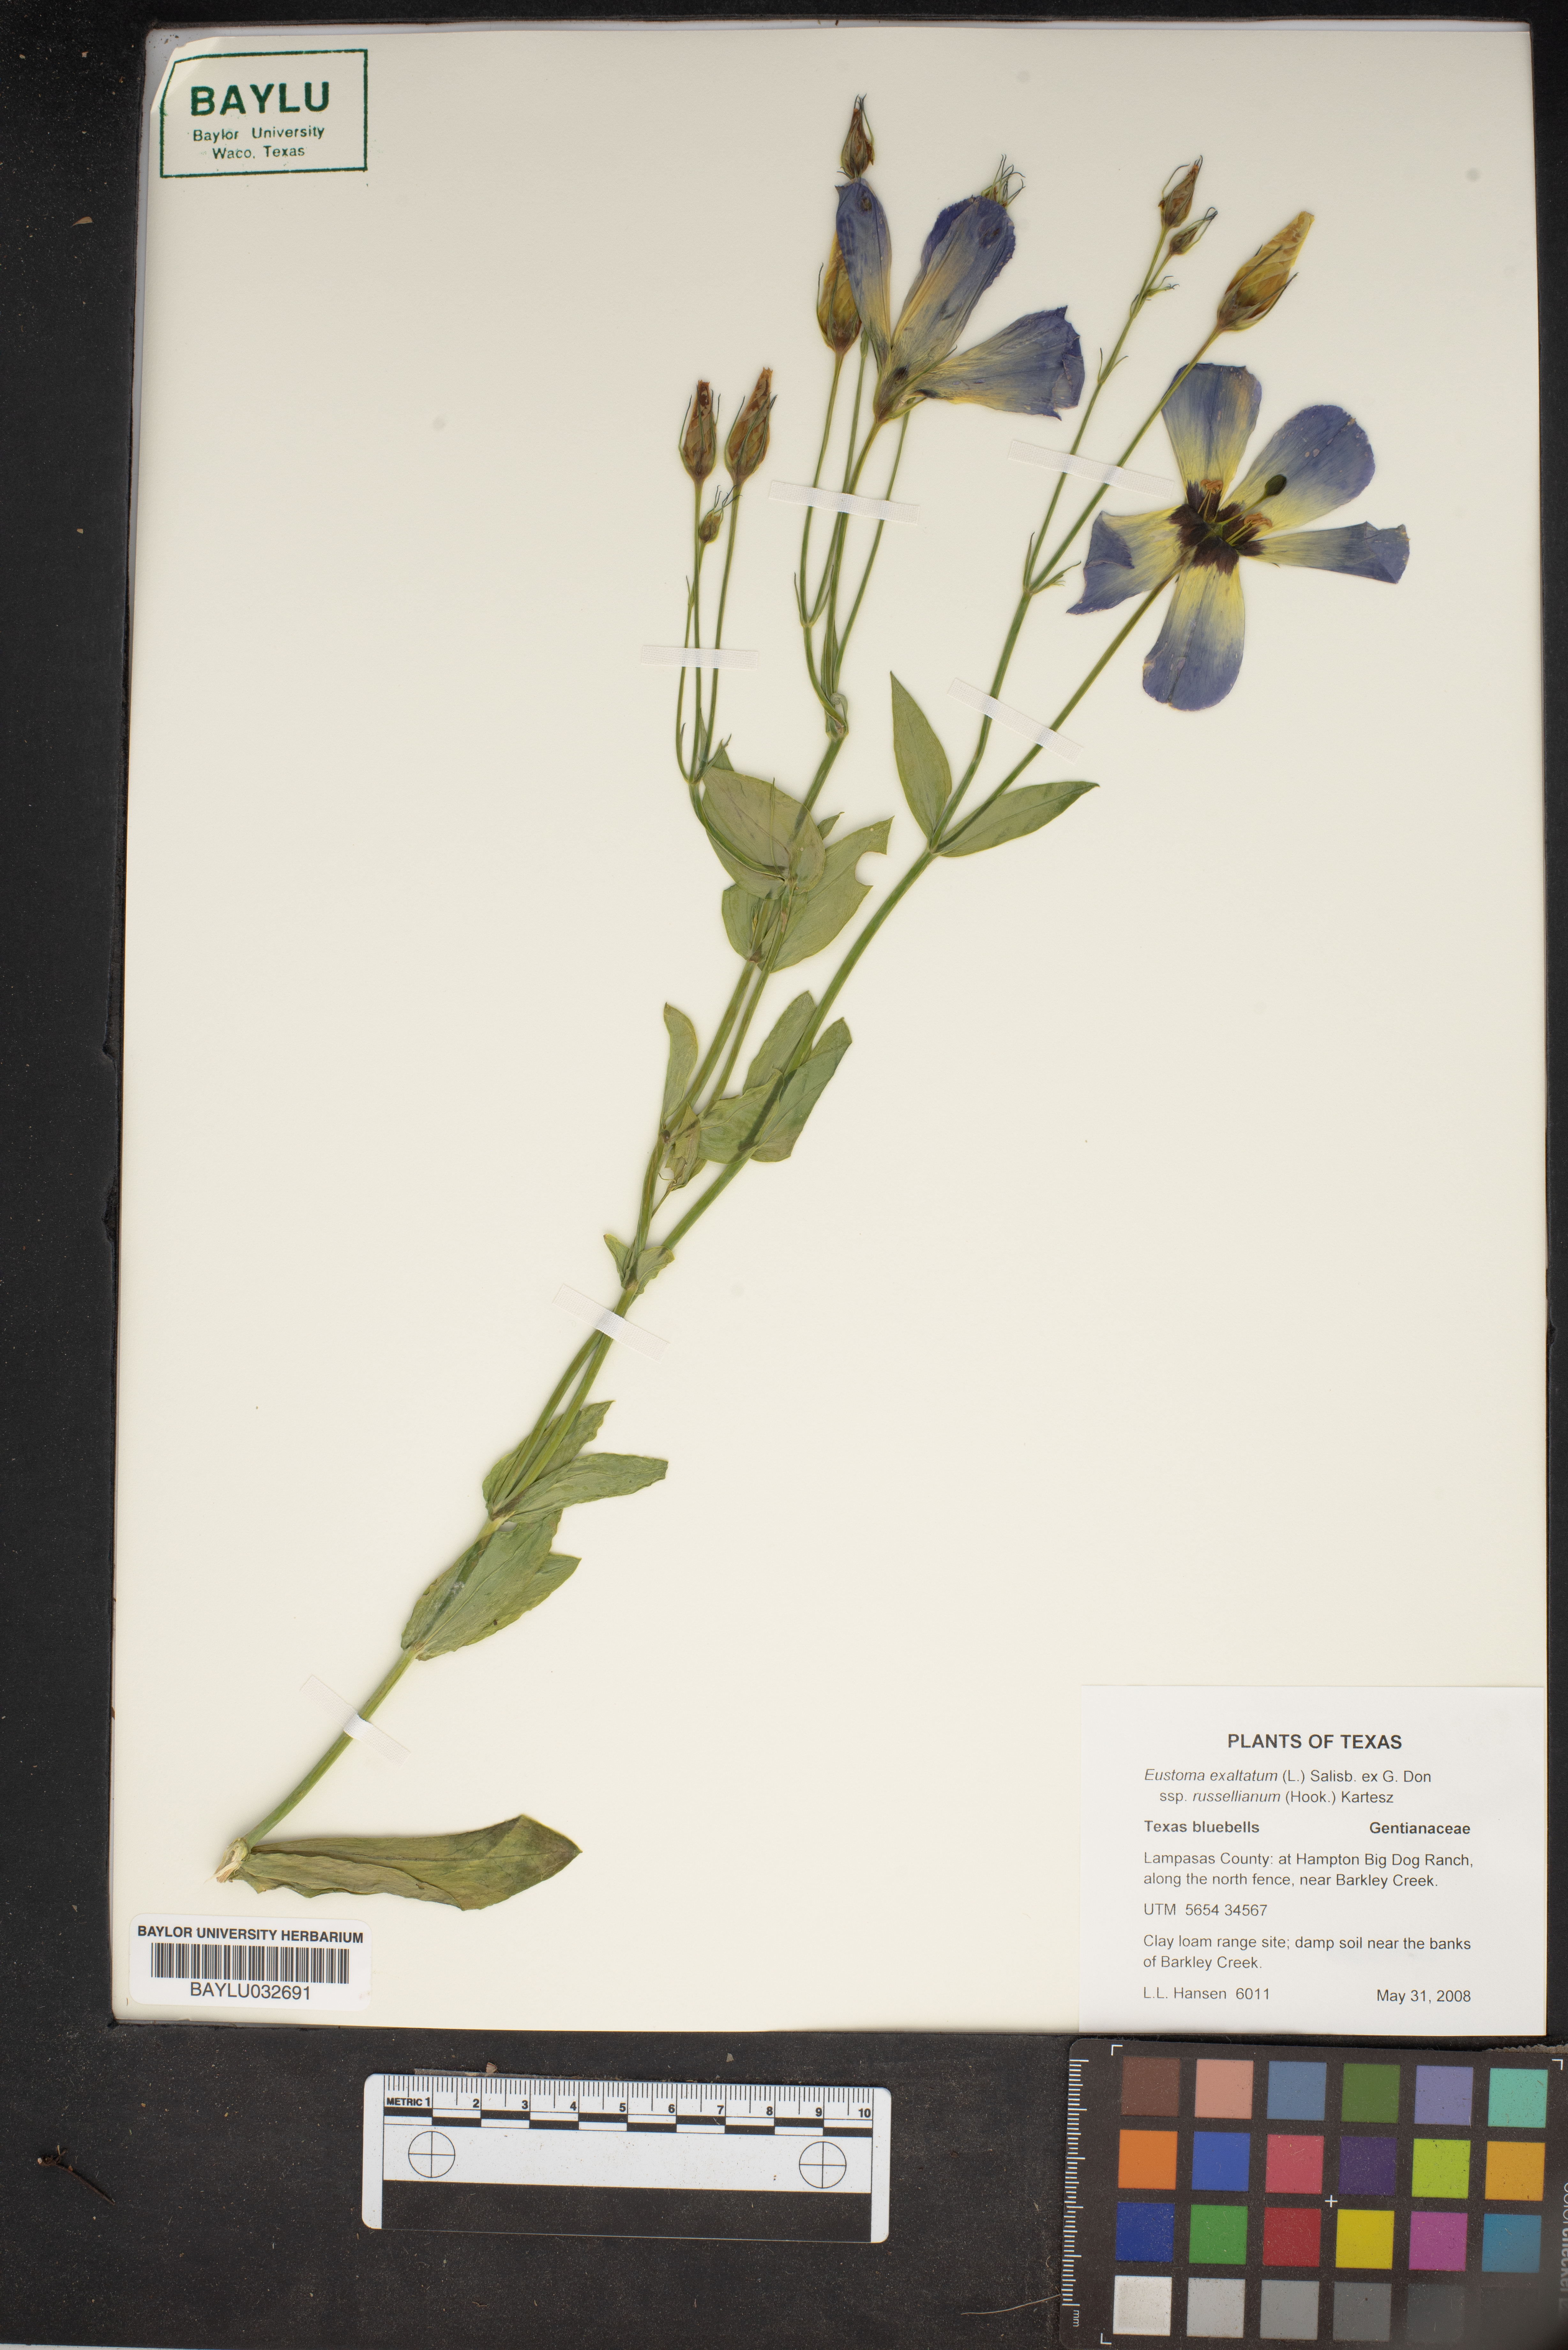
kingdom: Plantae
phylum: Tracheophyta
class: Magnoliopsida
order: Gentianales
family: Gentianaceae
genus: Eustoma
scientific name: Eustoma exaltatum
